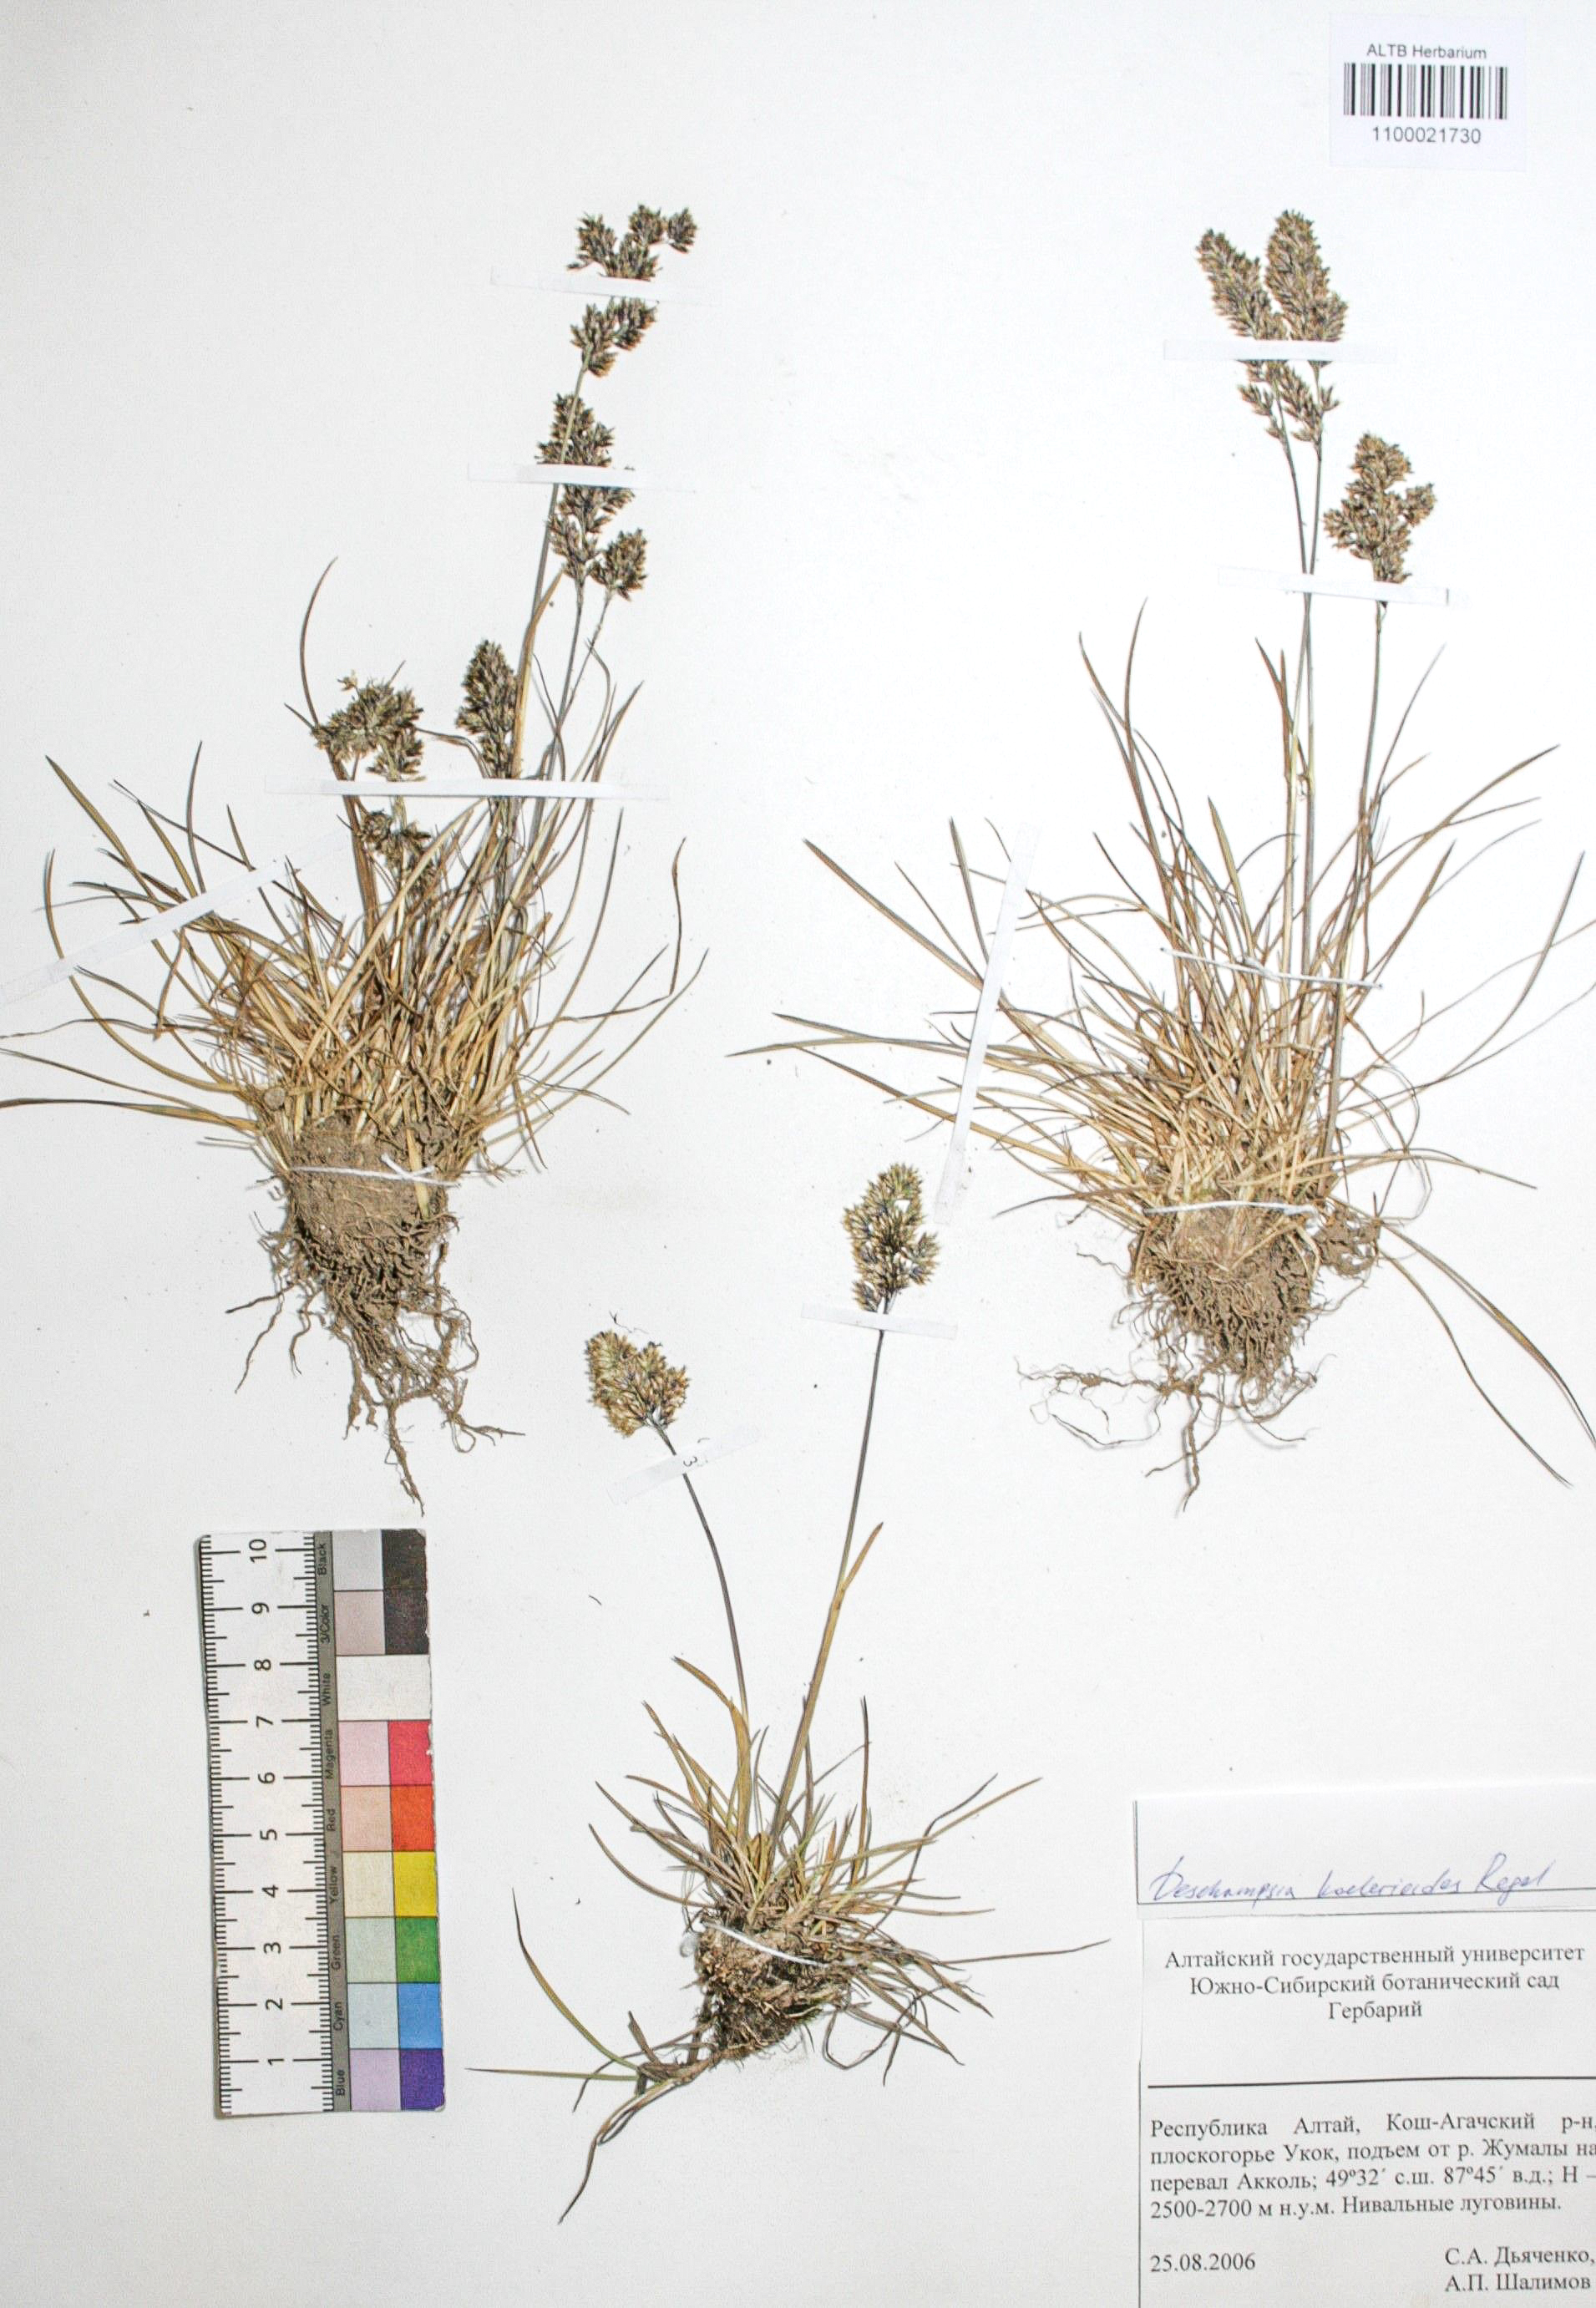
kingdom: Plantae
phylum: Tracheophyta
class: Liliopsida
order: Poales
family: Poaceae
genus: Deschampsia
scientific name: Deschampsia koelerioides
